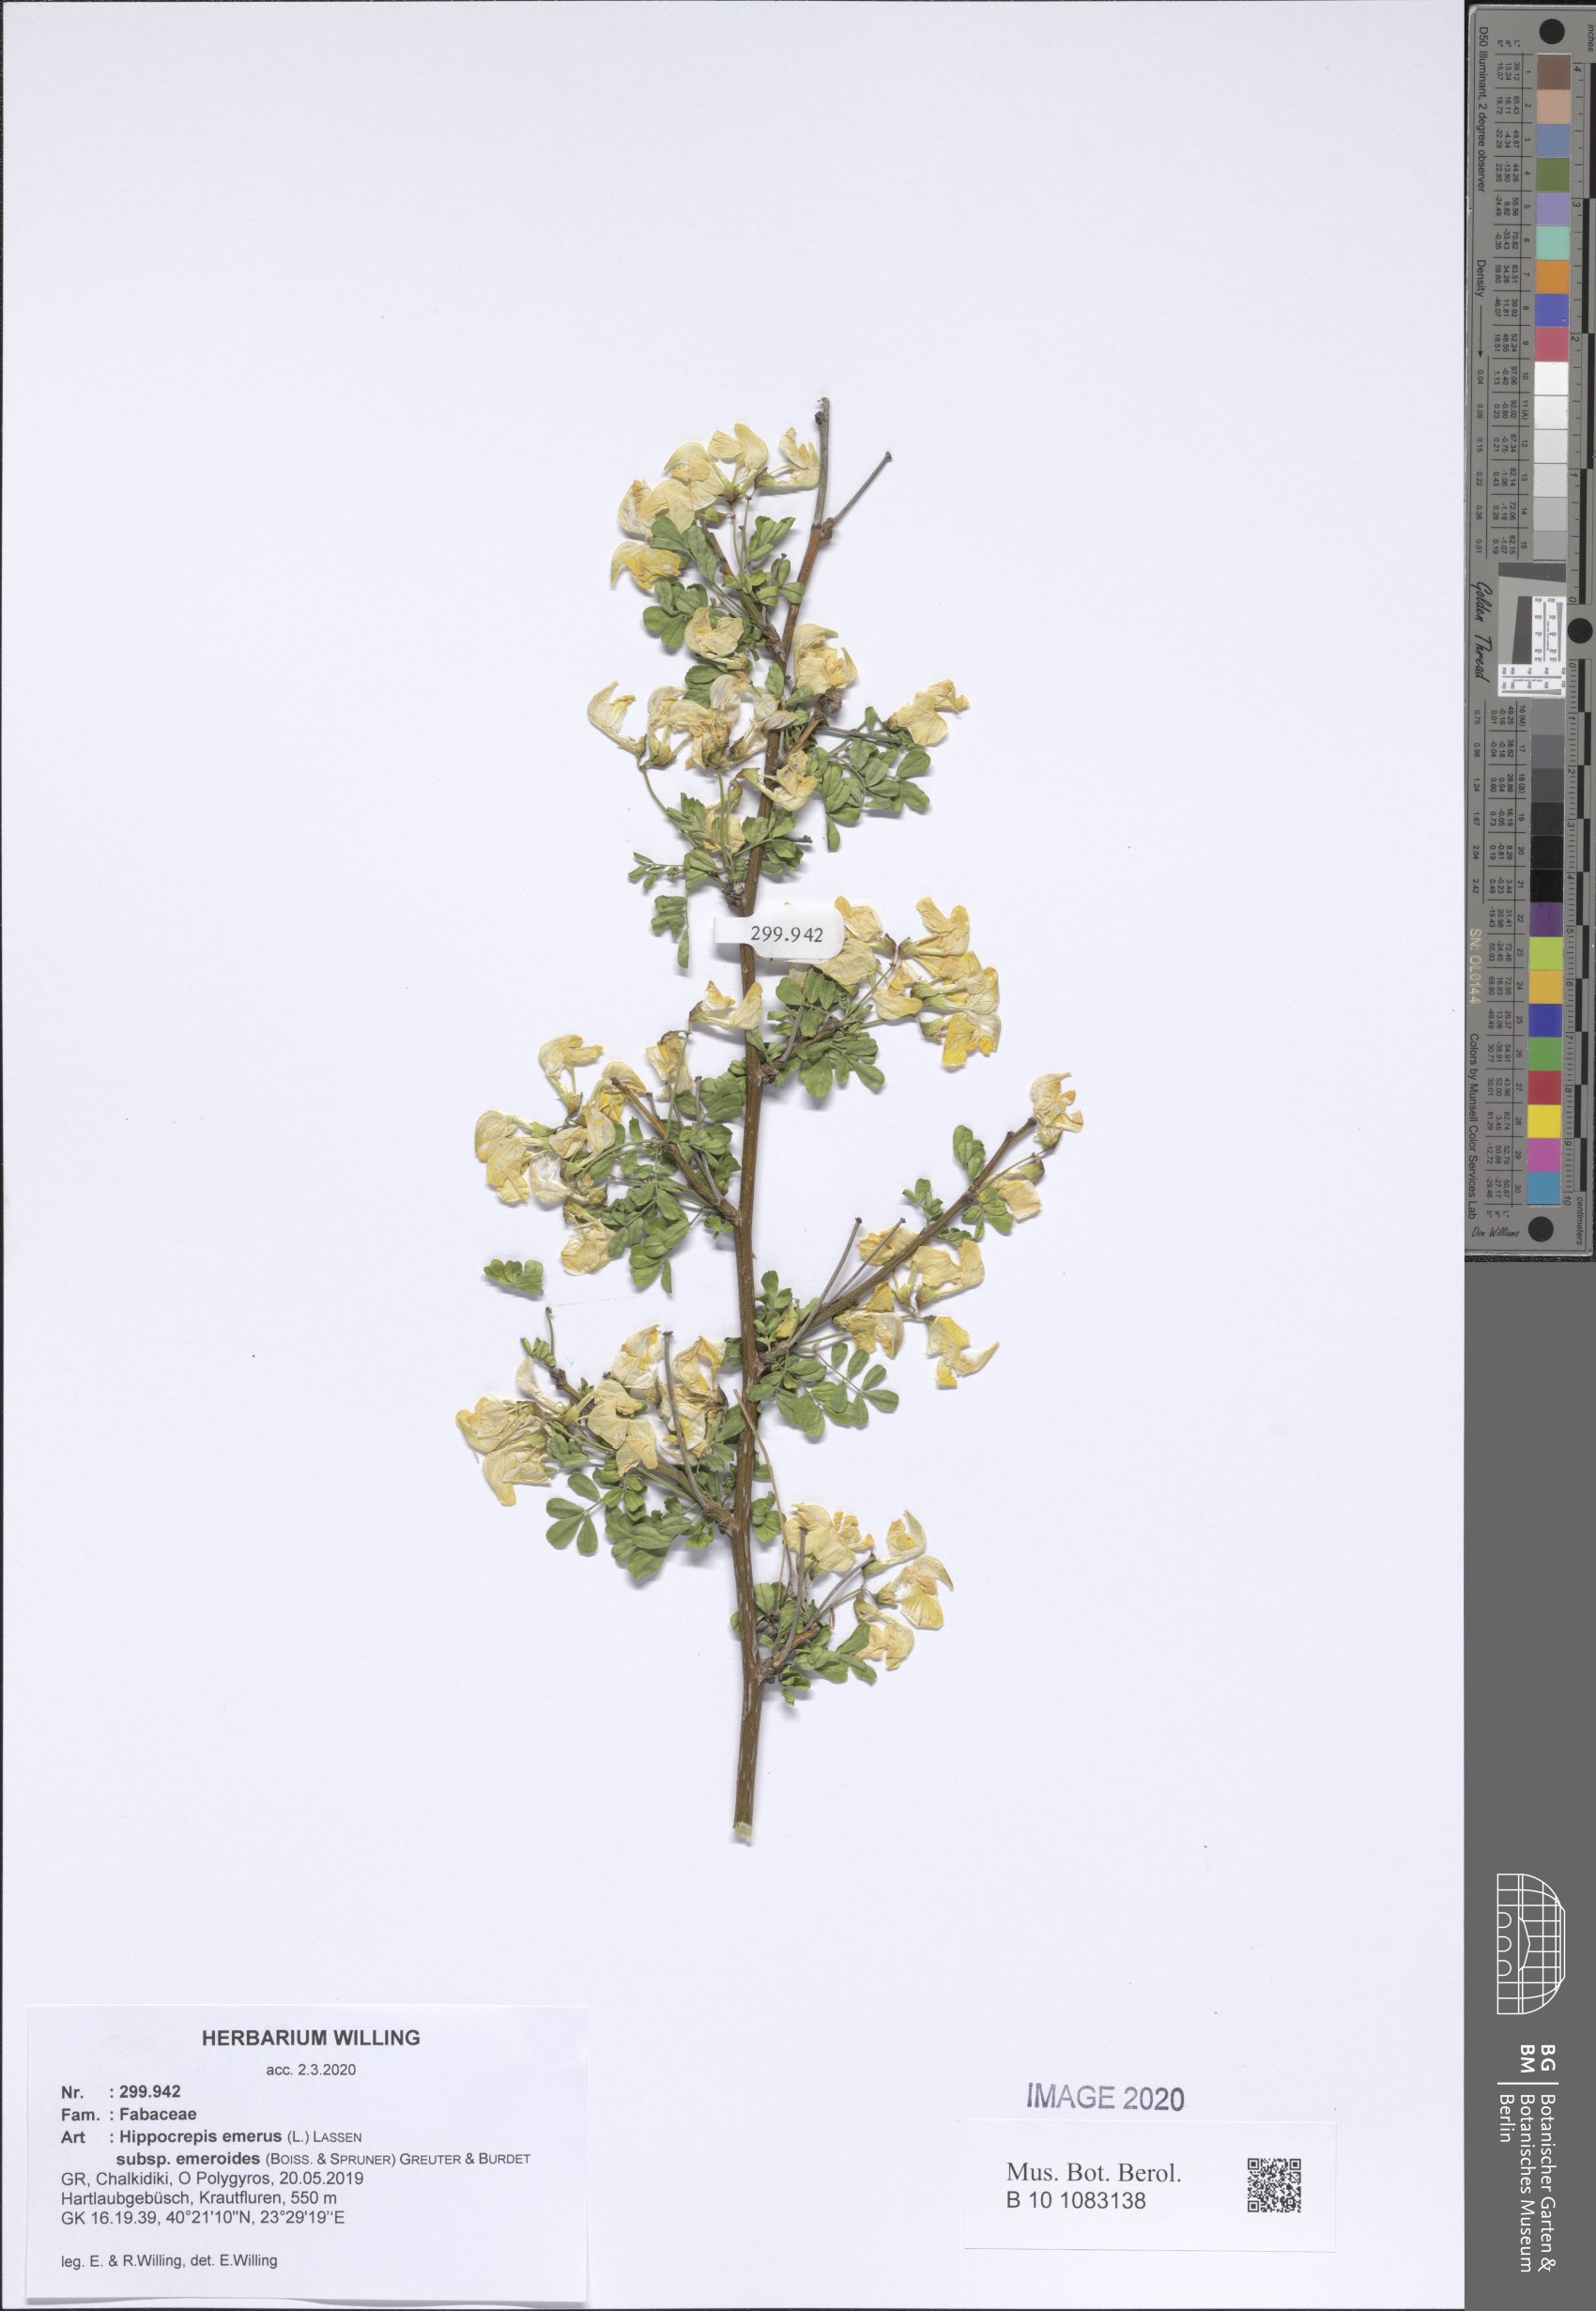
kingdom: Plantae
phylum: Tracheophyta
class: Magnoliopsida
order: Fabales
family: Fabaceae
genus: Hippocrepis
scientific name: Hippocrepis emerus
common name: Scorpion senna
